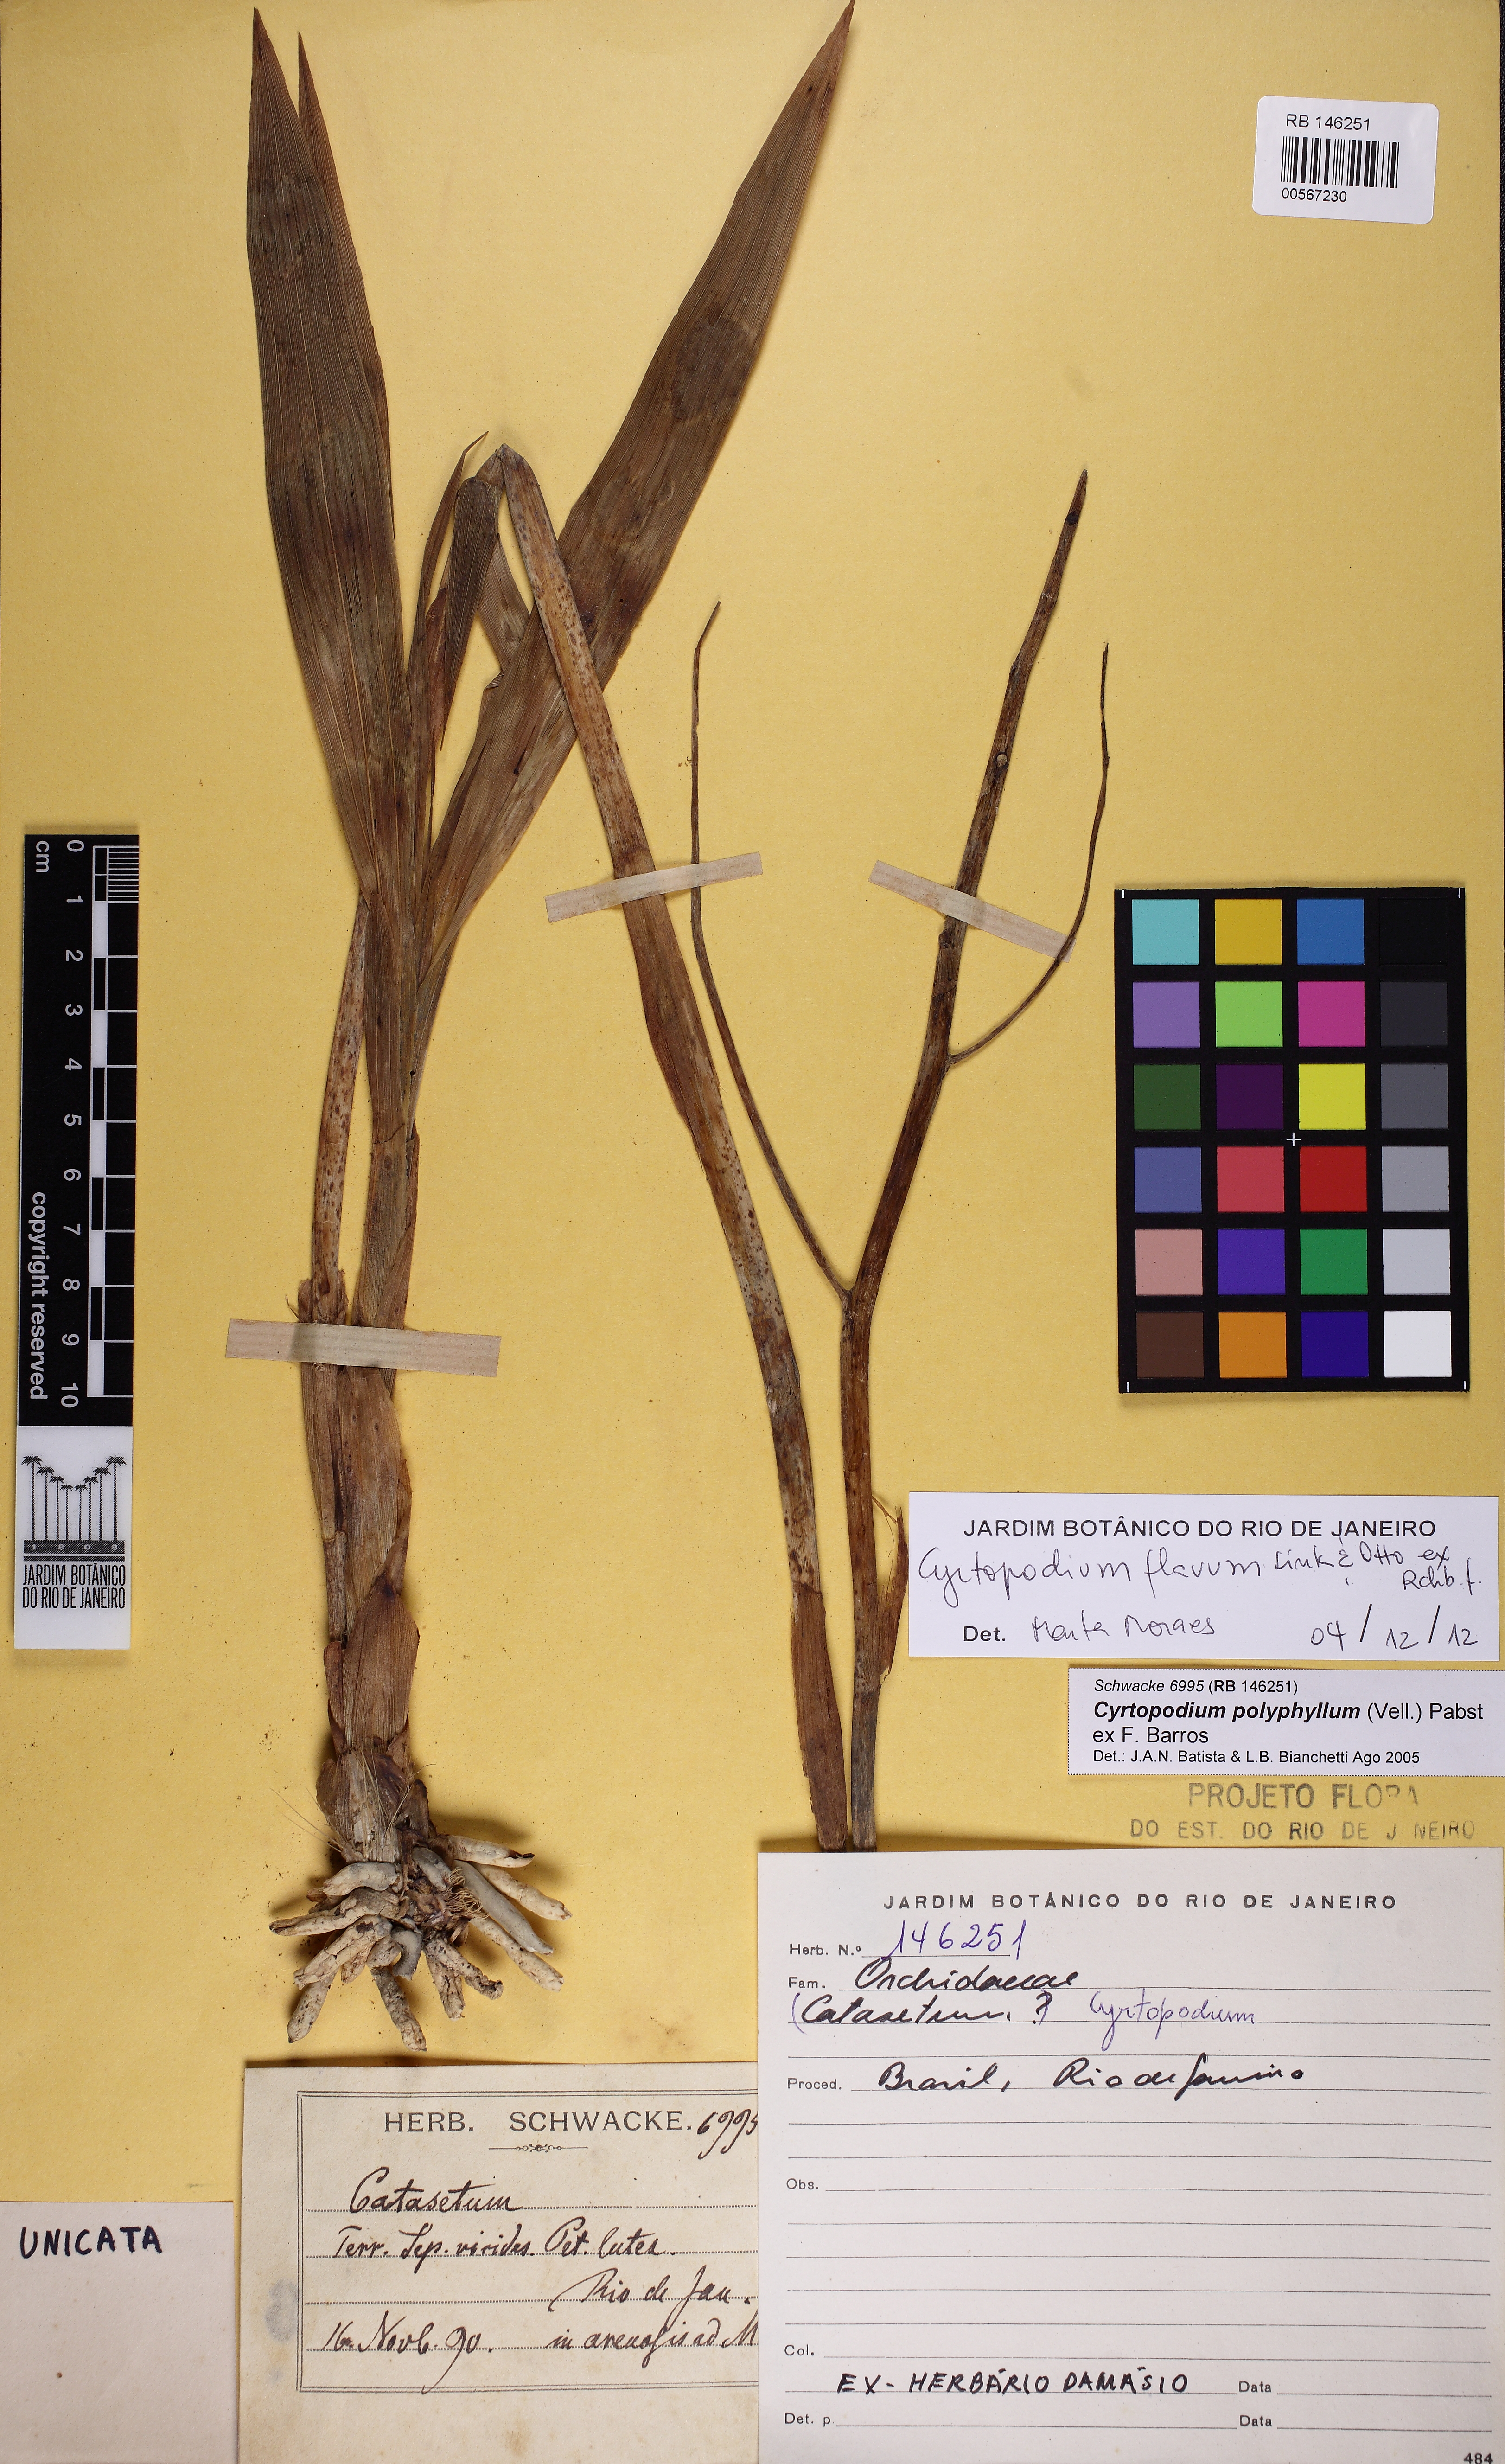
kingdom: Plantae
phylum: Tracheophyta
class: Liliopsida
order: Asparagales
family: Orchidaceae
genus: Cyrtopodium
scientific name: Cyrtopodium flavum
